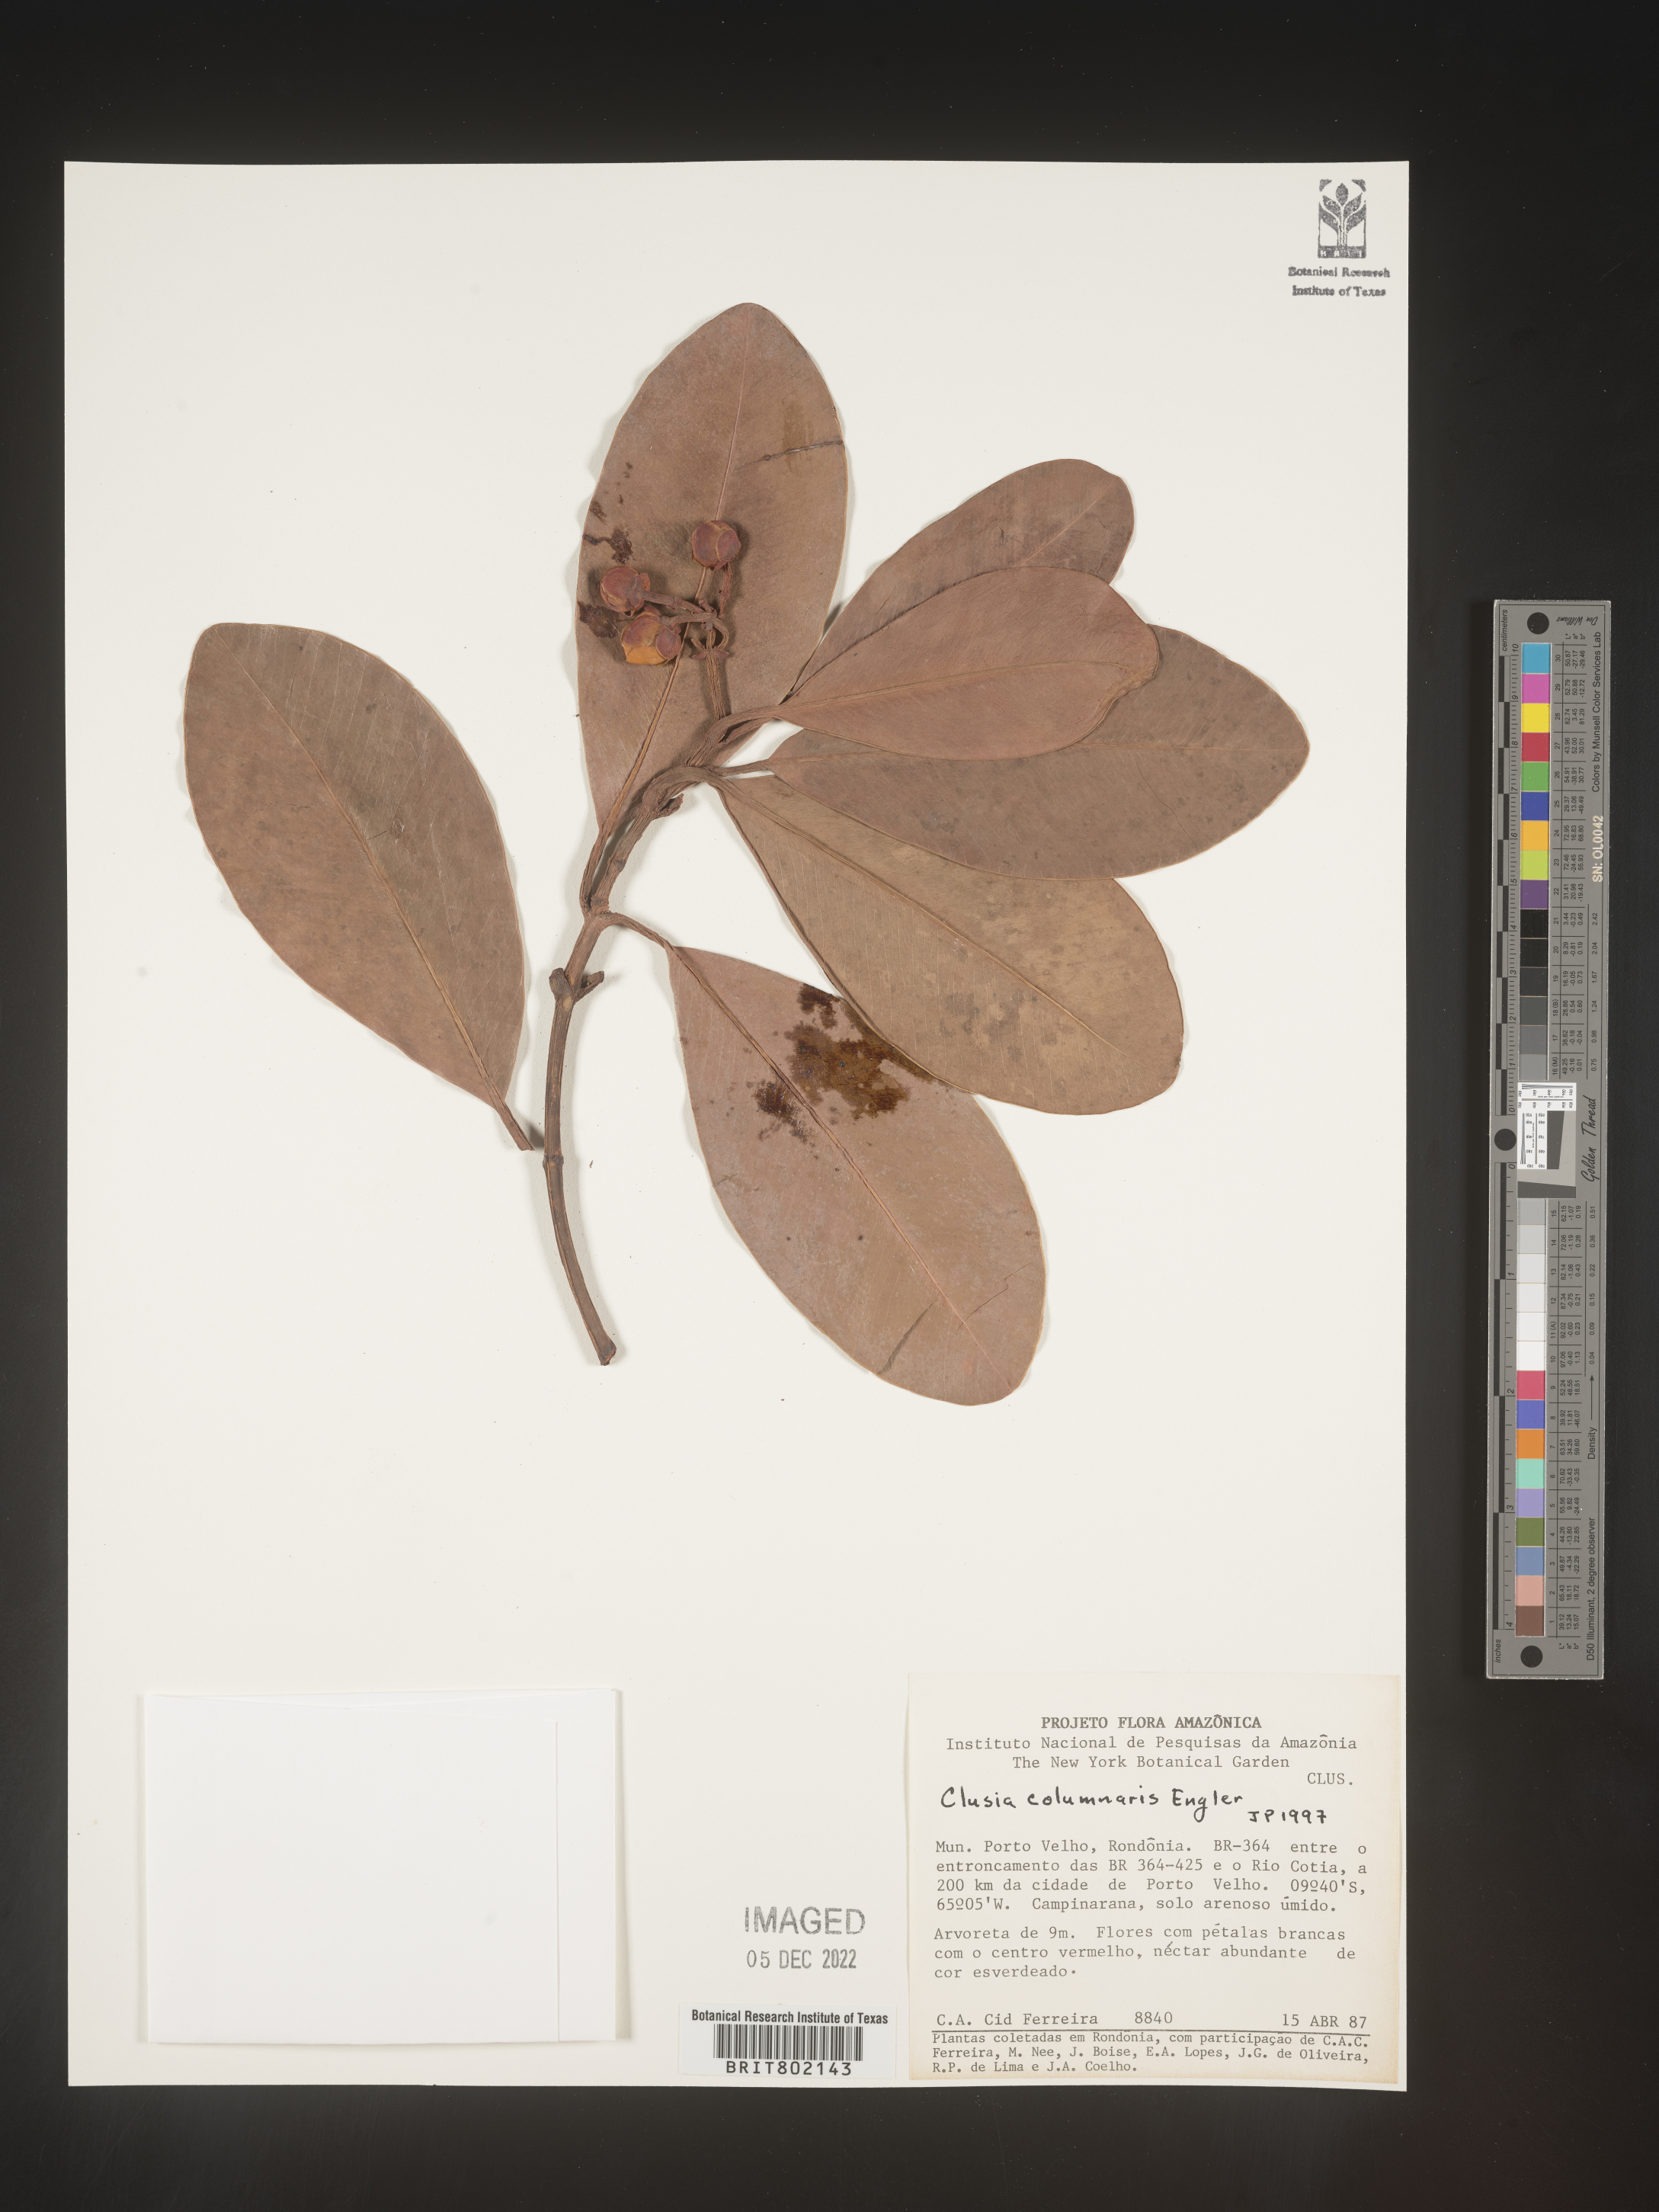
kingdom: Plantae
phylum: Tracheophyta
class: Magnoliopsida
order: Malpighiales
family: Clusiaceae
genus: Clusia
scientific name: Clusia columnaris
